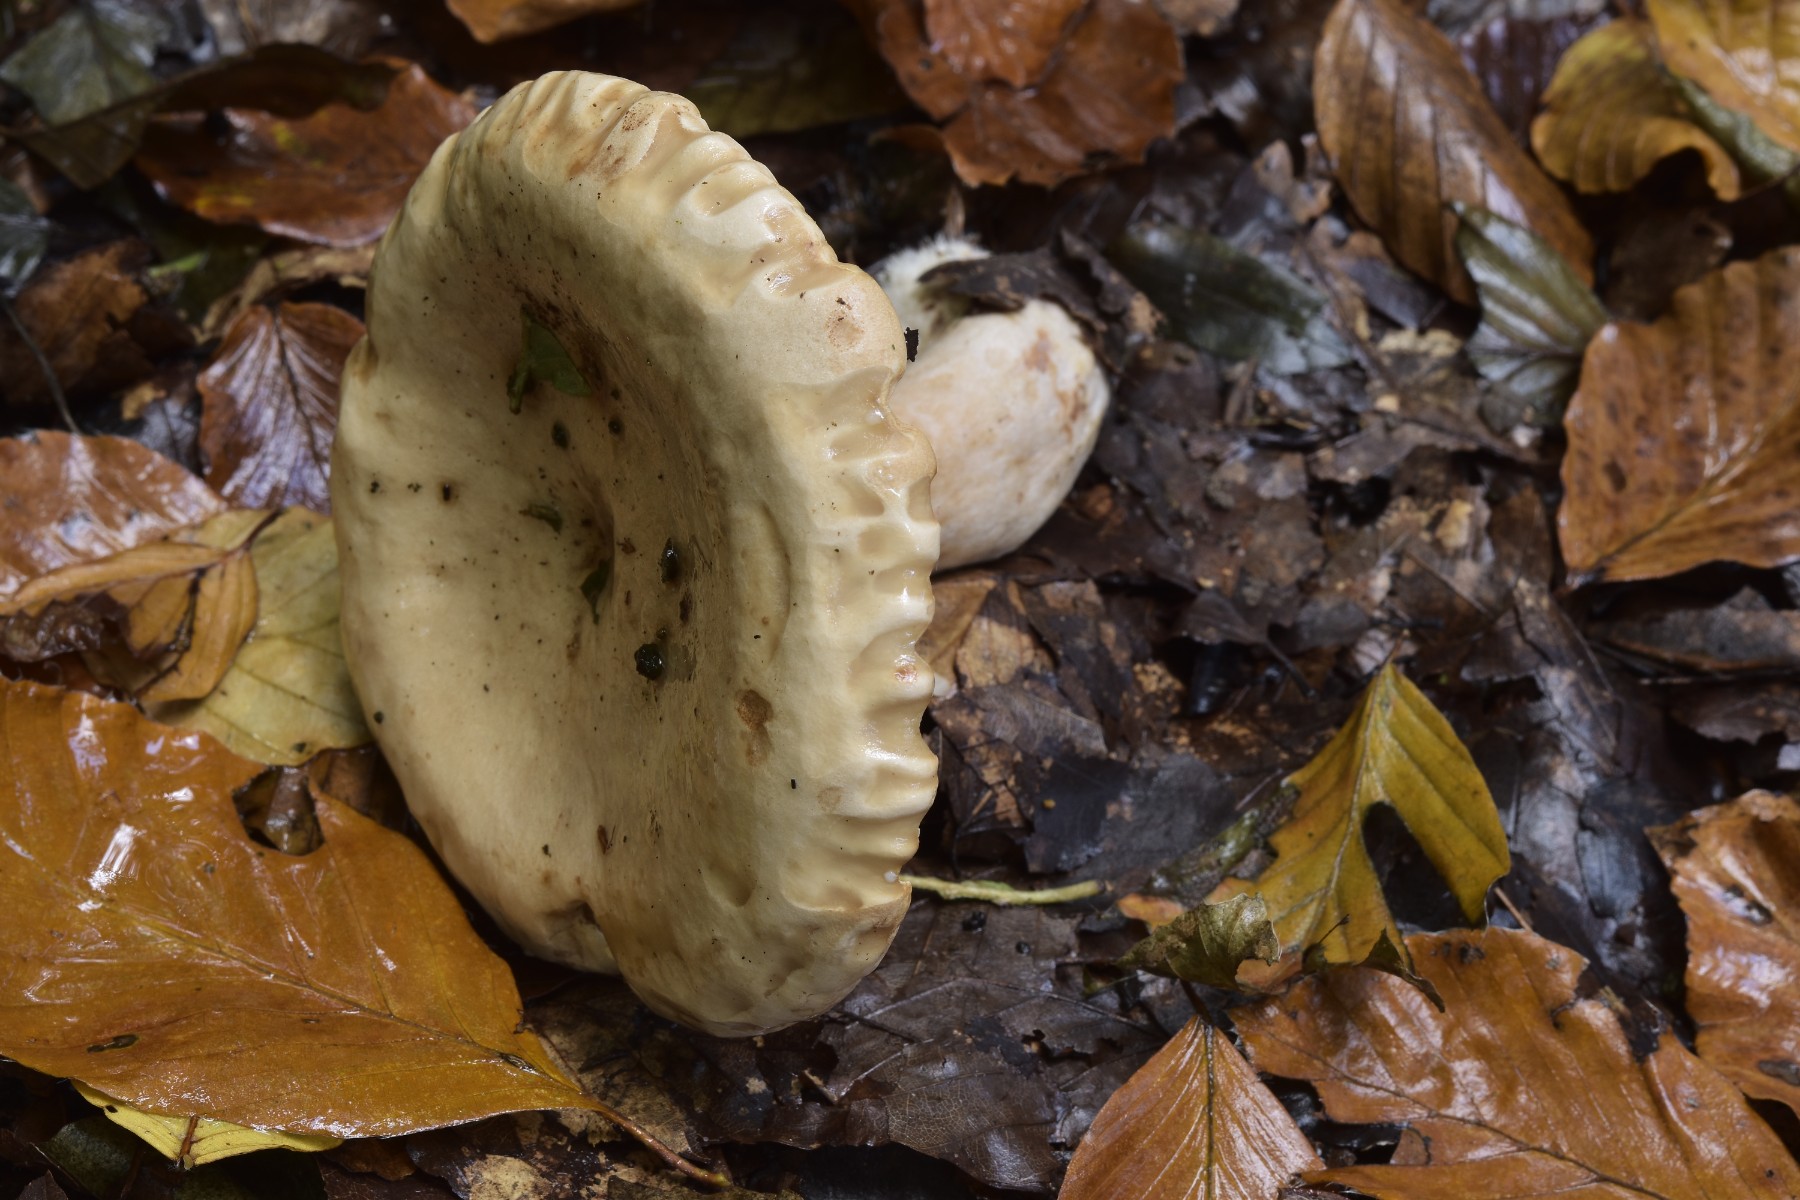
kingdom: Fungi
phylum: Basidiomycota
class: Agaricomycetes
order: Russulales
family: Russulaceae
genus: Lactarius
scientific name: Lactarius pallidus
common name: bleg mælkehat
